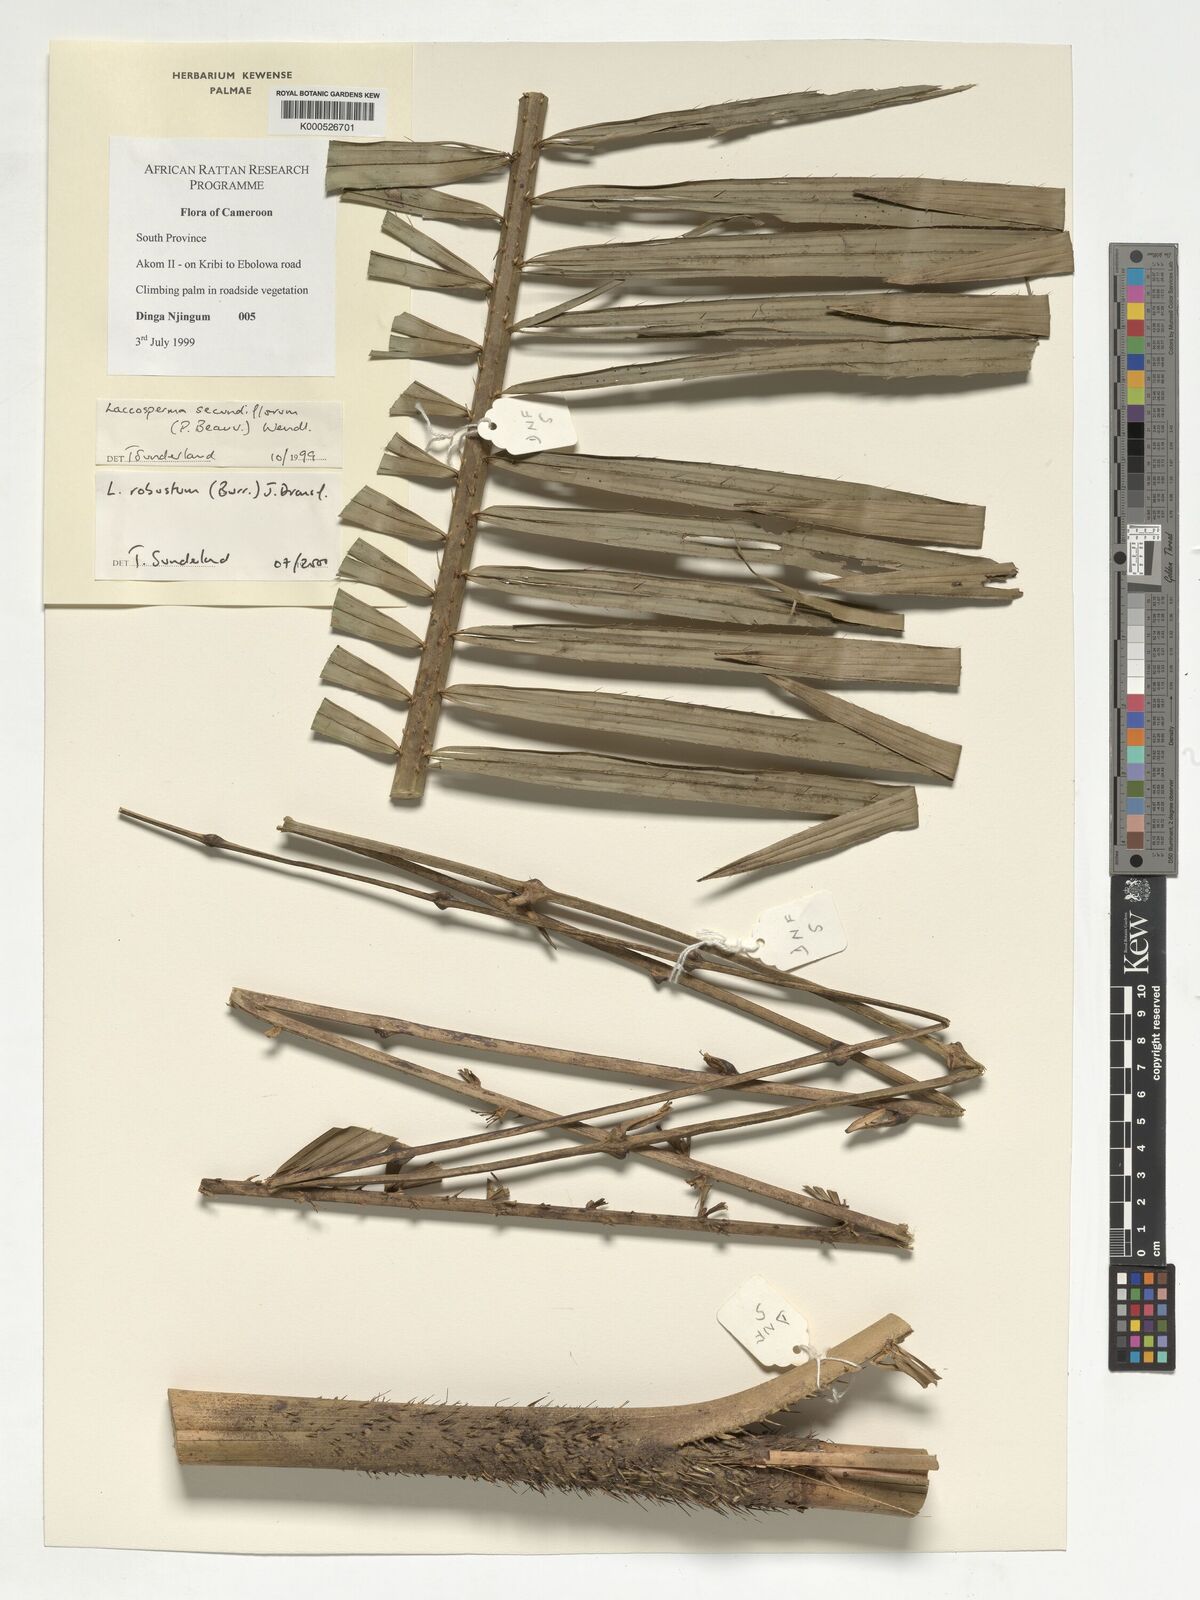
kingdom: Plantae
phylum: Tracheophyta
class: Liliopsida
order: Arecales
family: Arecaceae
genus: Laccosperma
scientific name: Laccosperma robustum
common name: Rattan
